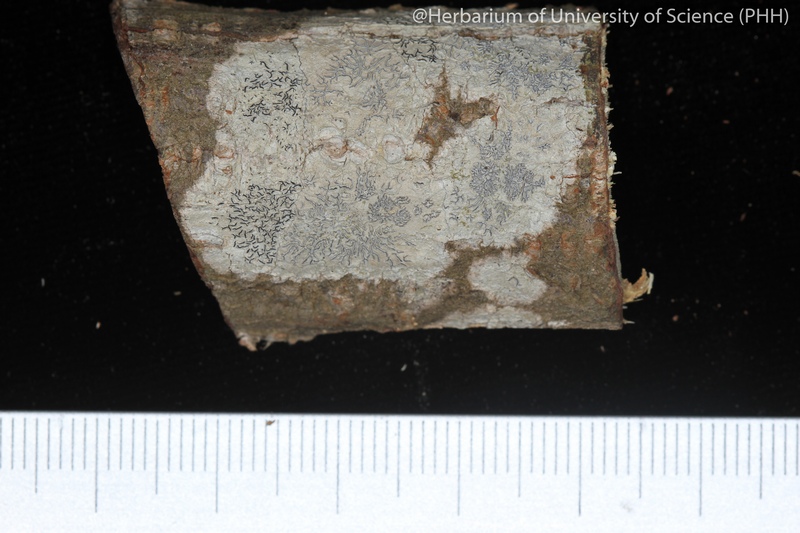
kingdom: Fungi
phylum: Ascomycota
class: Lecanoromycetes
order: Ostropales
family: Graphidaceae
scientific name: Graphidaceae
